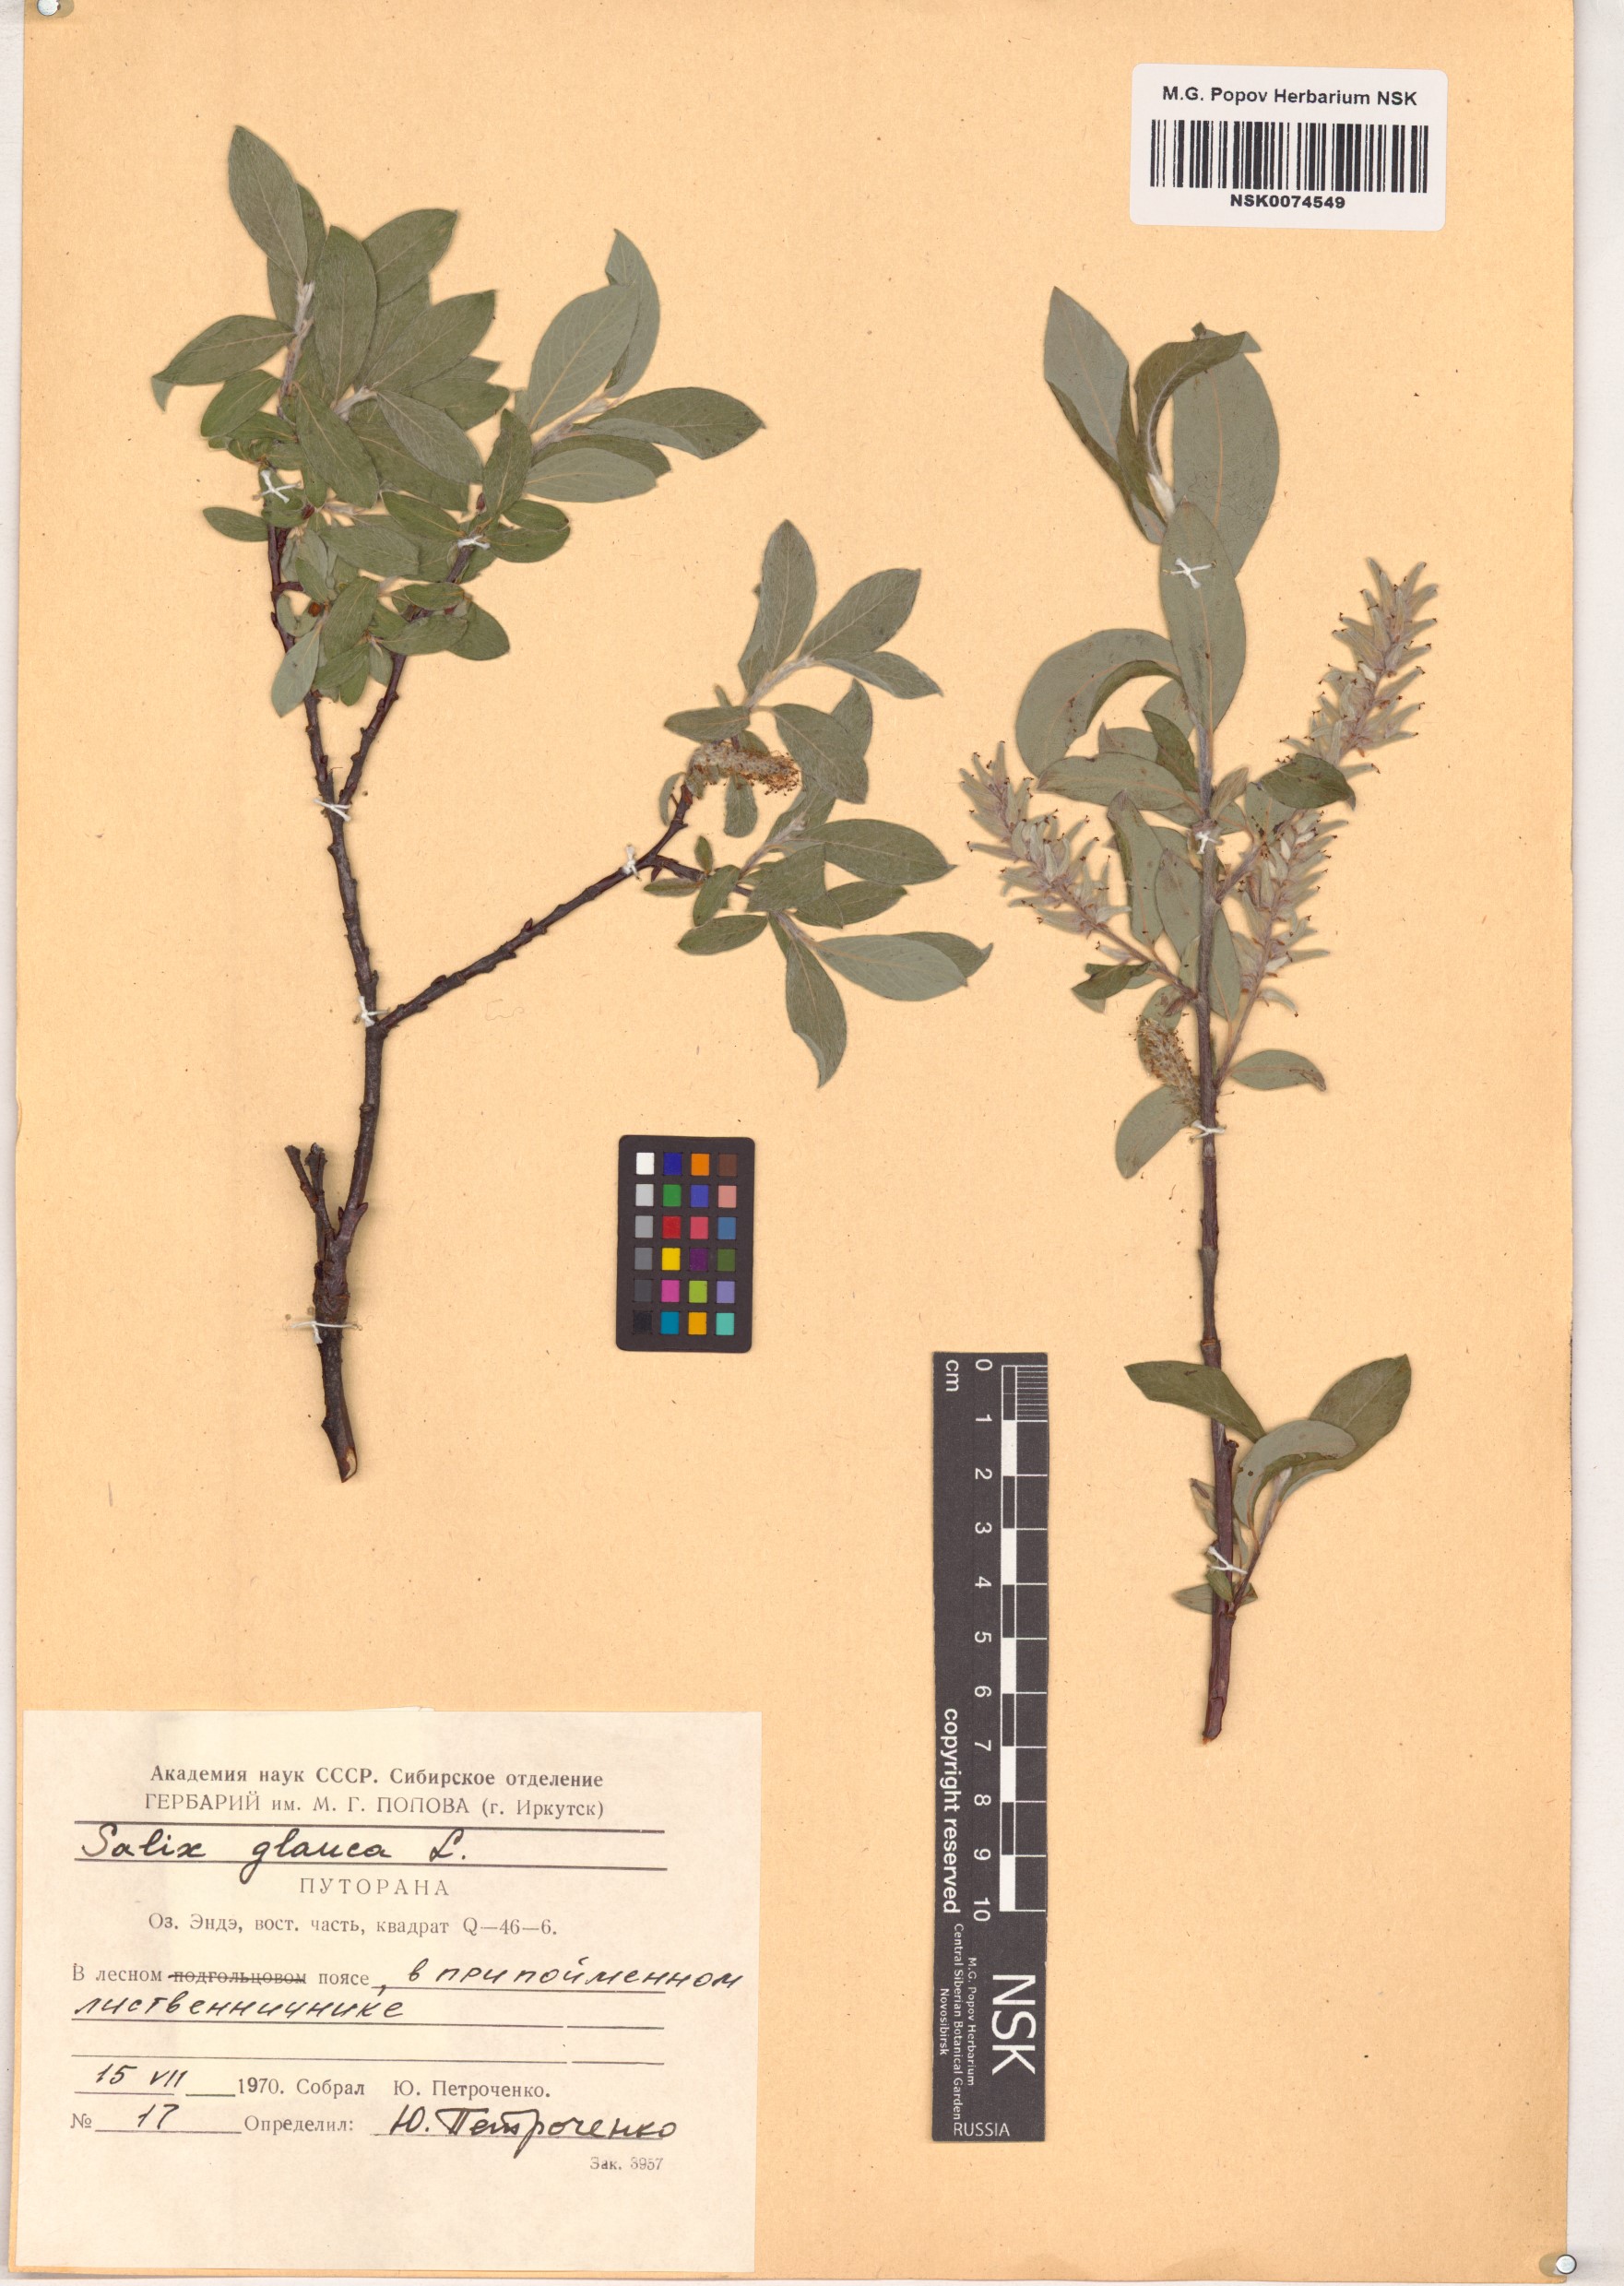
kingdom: Plantae
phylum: Tracheophyta
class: Magnoliopsida
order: Malpighiales
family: Salicaceae
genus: Salix
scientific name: Salix glauca
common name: Glaucous willow
